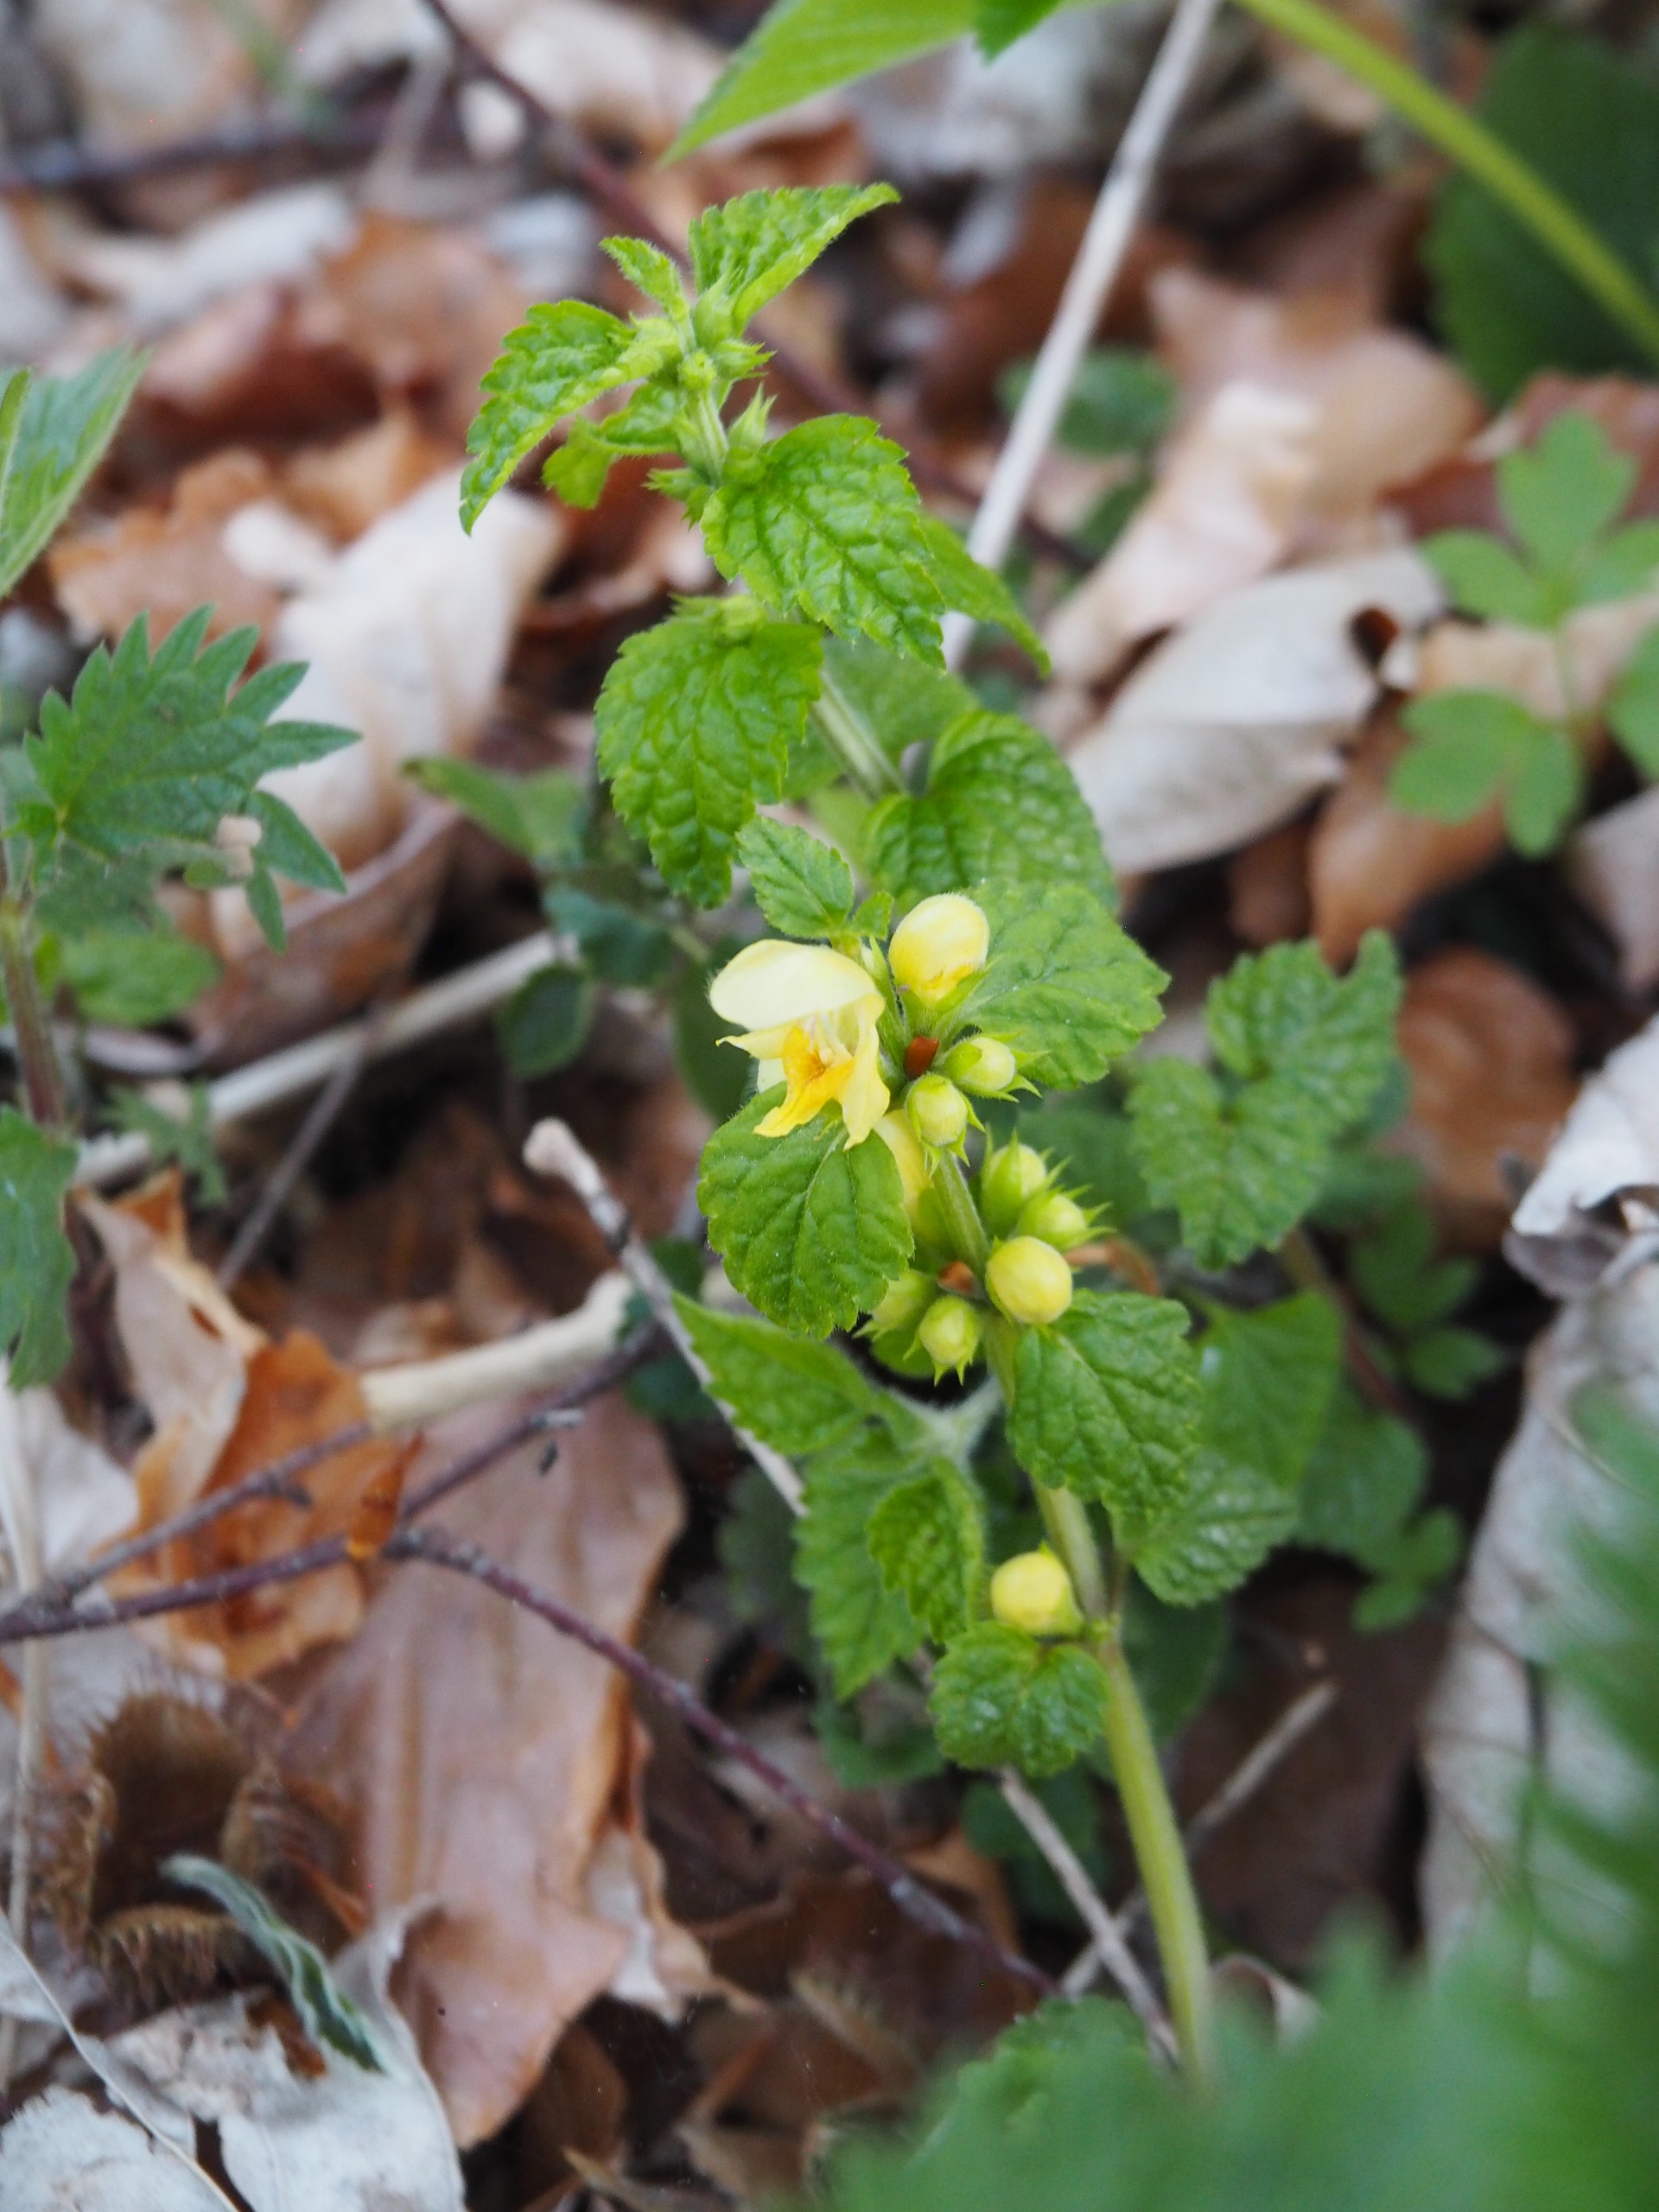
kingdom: Plantae
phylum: Tracheophyta
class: Magnoliopsida
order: Lamiales
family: Lamiaceae
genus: Lamium
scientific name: Lamium galeobdolon
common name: Guldnælde
